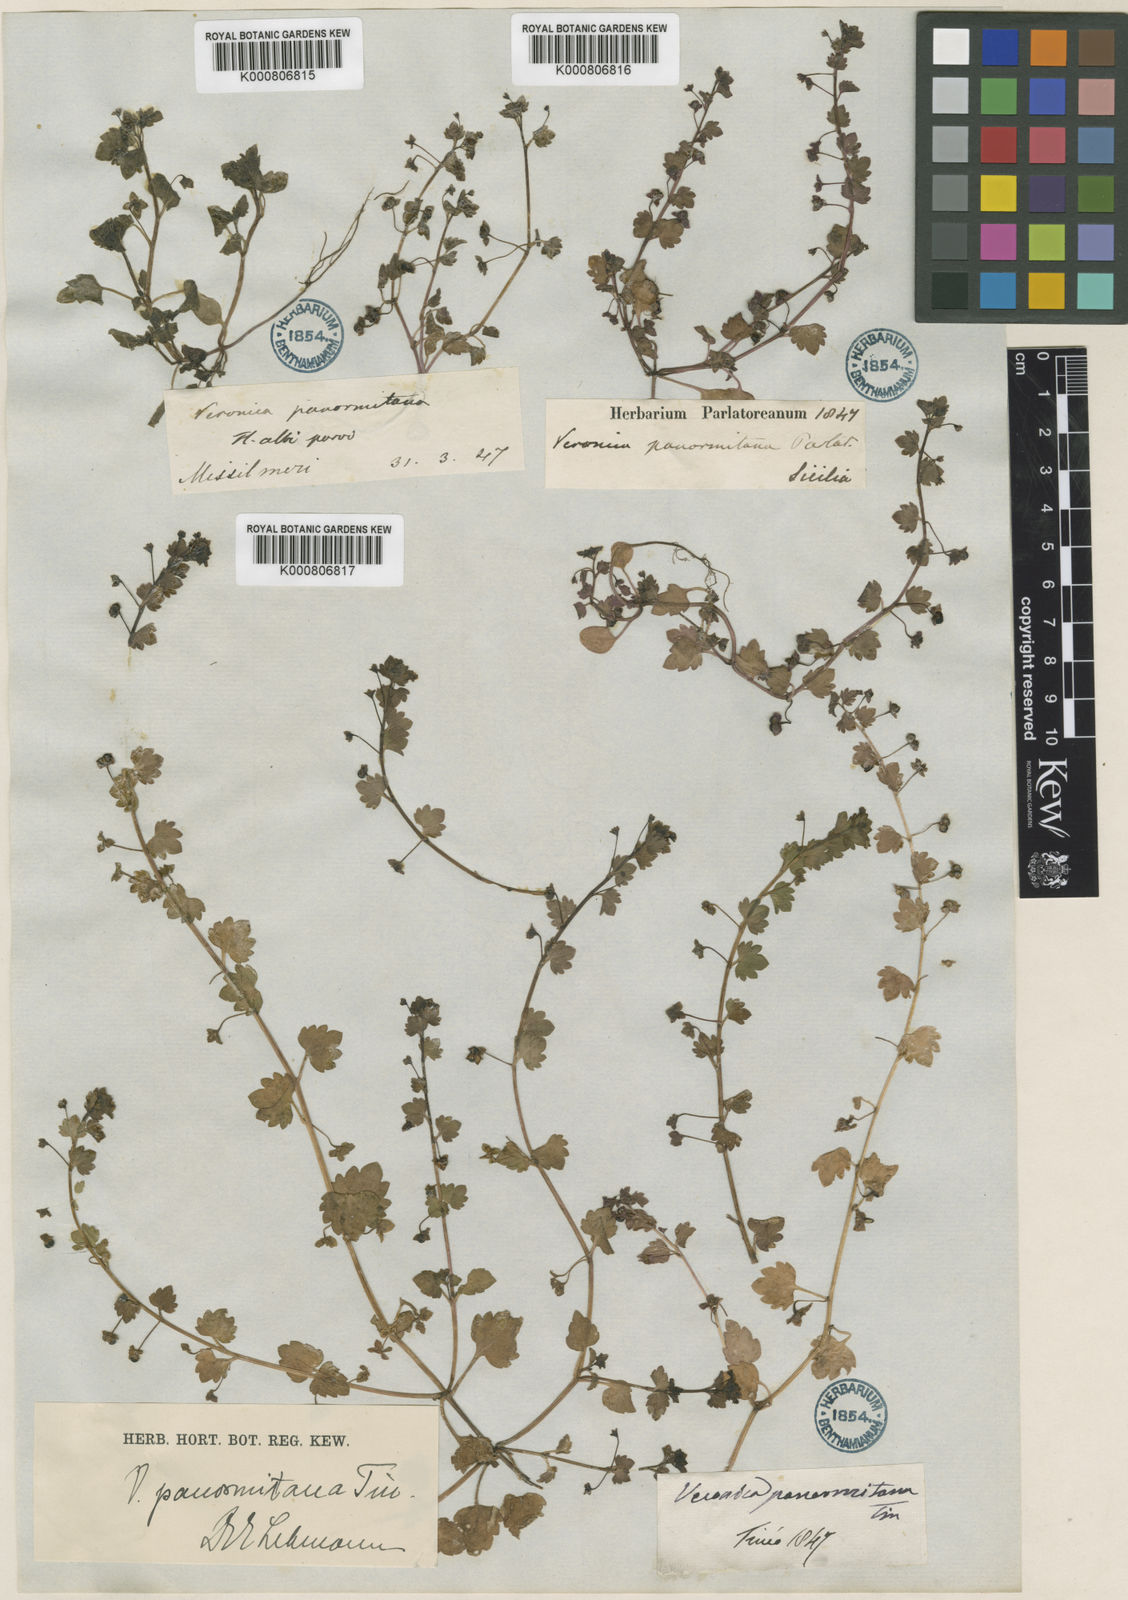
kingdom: Plantae
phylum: Tracheophyta
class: Magnoliopsida
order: Lamiales
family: Plantaginaceae
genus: Veronica
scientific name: Veronica
